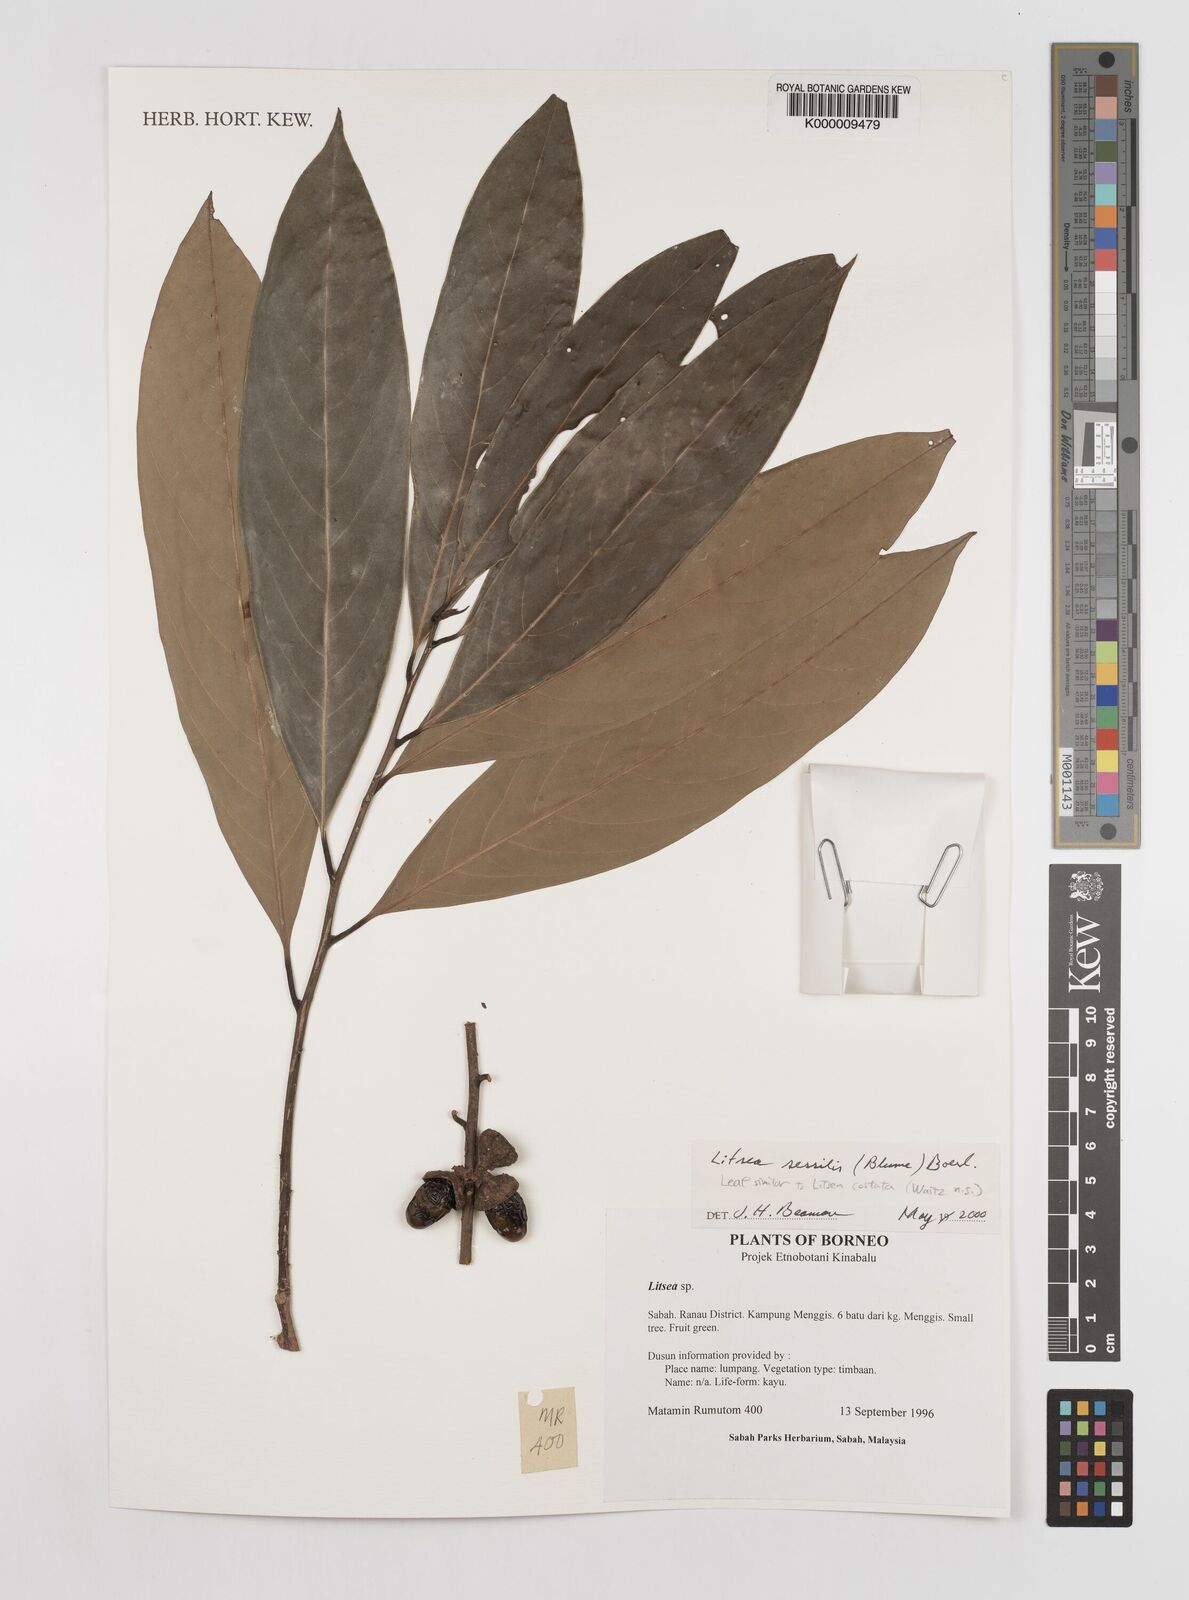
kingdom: Plantae
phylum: Tracheophyta
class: Magnoliopsida
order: Laurales
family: Lauraceae
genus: Litsea
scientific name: Litsea sessilis
